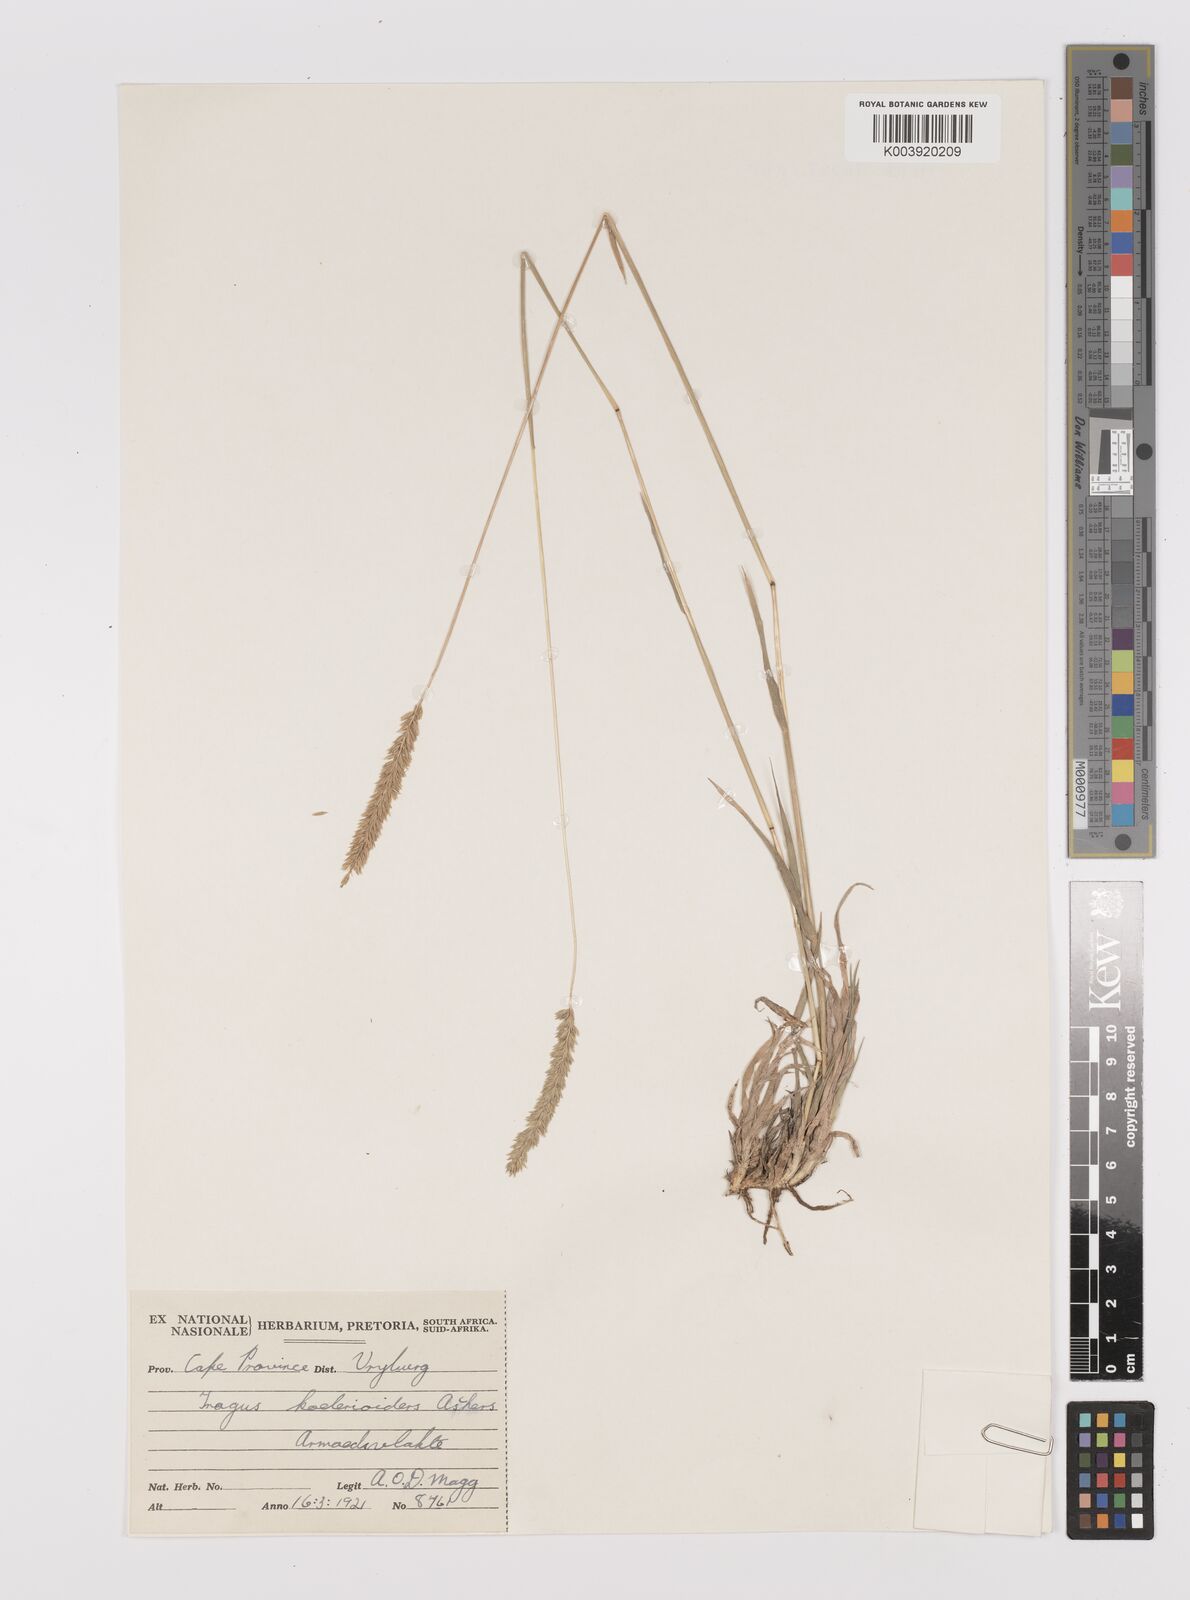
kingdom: Plantae
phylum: Tracheophyta
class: Liliopsida
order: Poales
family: Poaceae
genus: Tragus
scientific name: Tragus koelerioides
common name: Creeping carrot-seed grass
